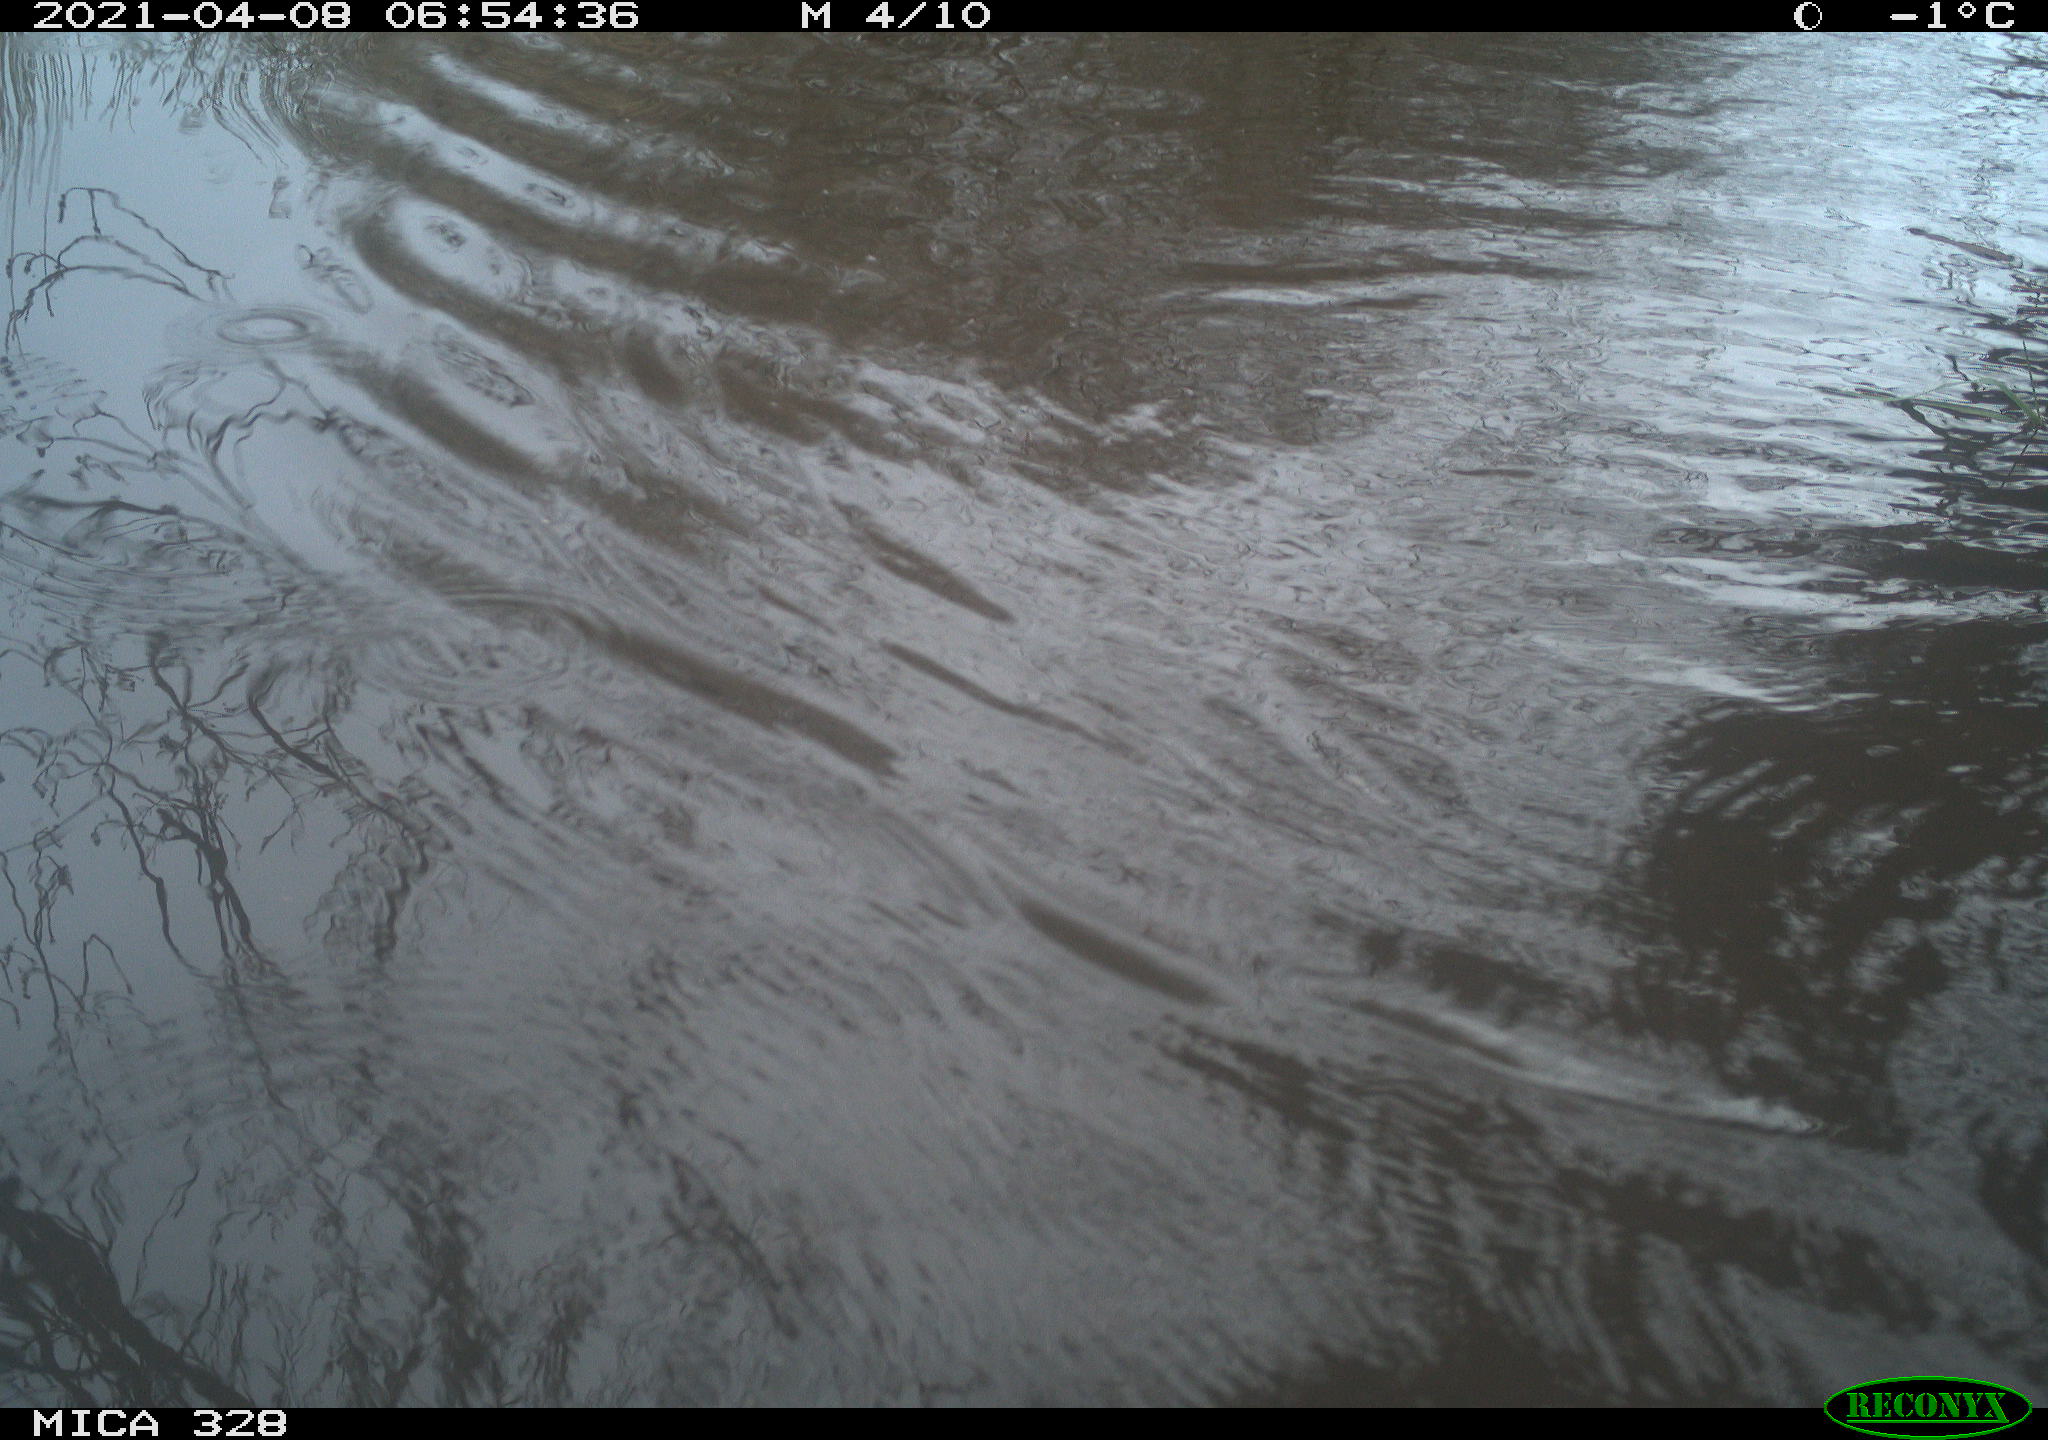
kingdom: Animalia
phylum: Chordata
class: Mammalia
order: Rodentia
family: Cricetidae
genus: Ondatra
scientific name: Ondatra zibethicus
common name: Muskrat
